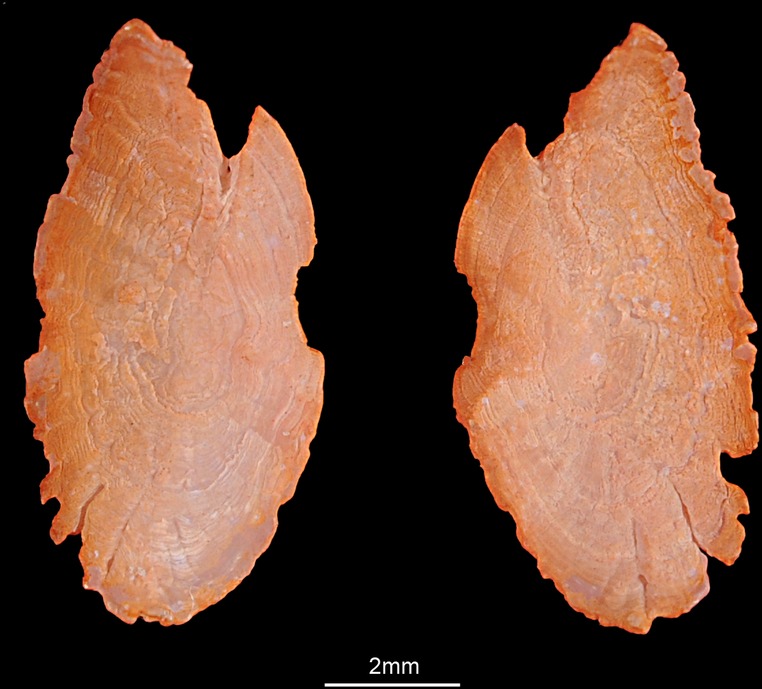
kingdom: Animalia
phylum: Chordata
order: Perciformes
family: Gerreidae
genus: Gerres
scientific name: Gerres oyena
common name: Common silver-biddy
